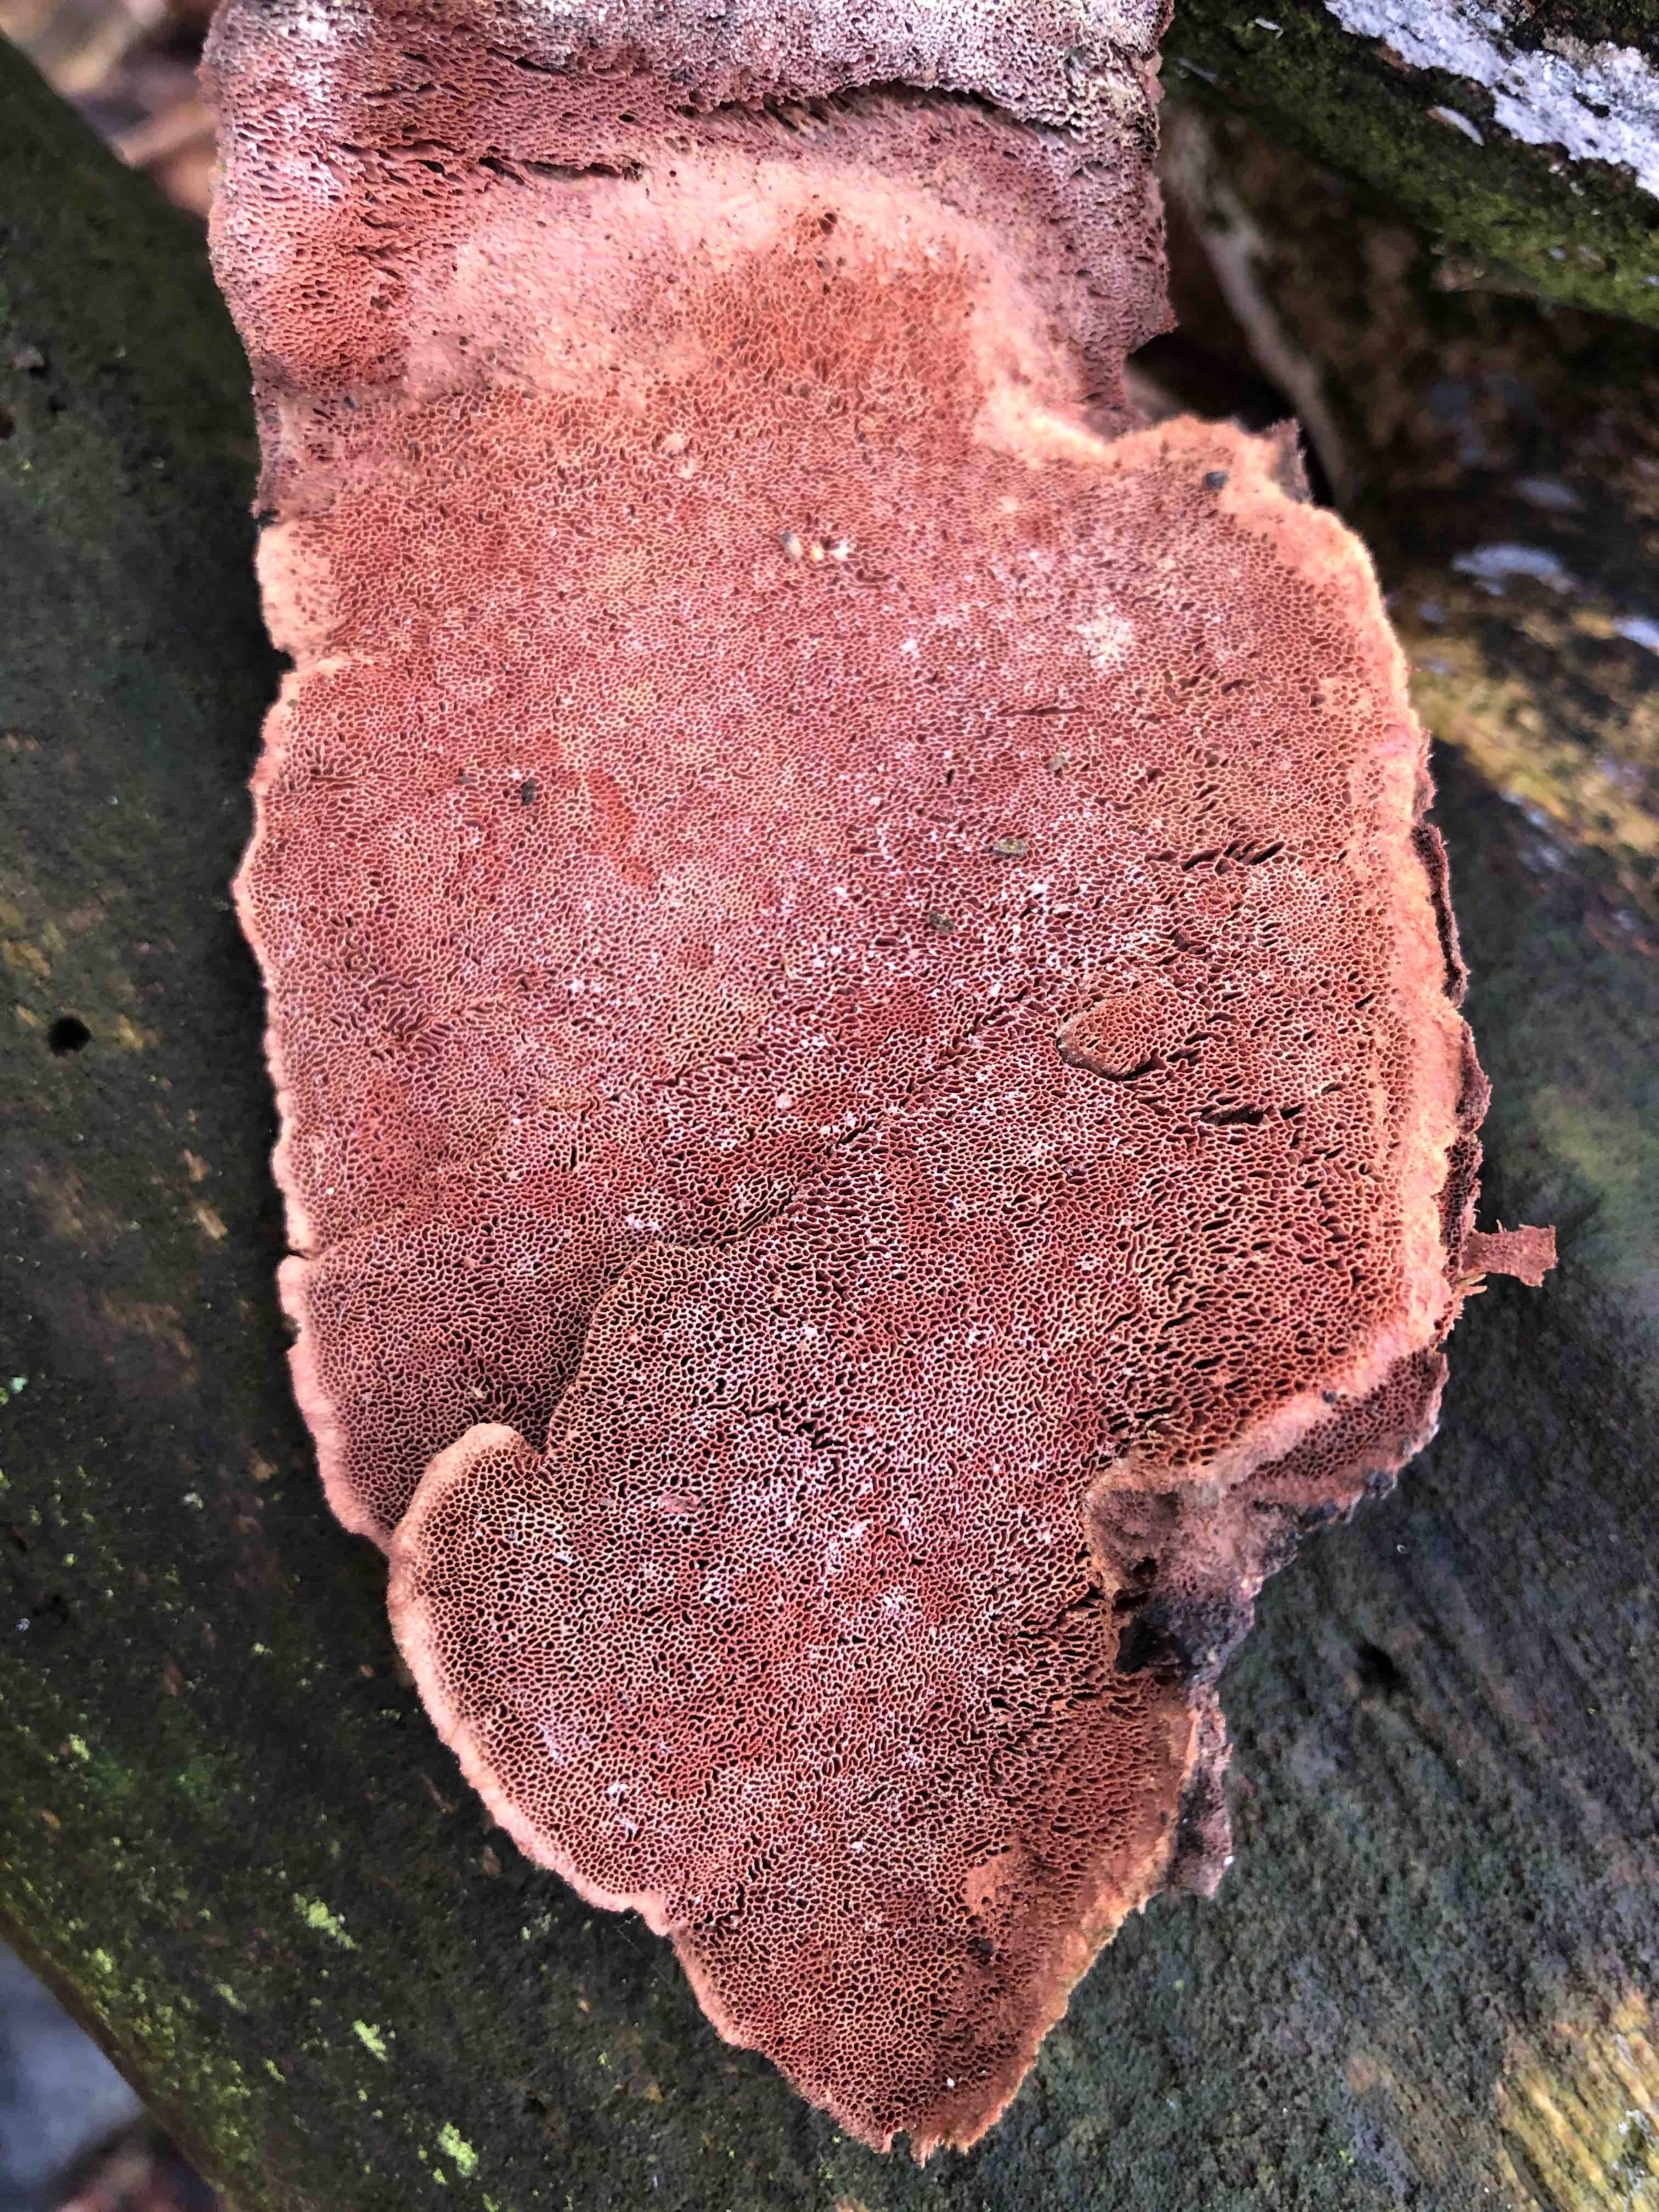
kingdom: Fungi
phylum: Basidiomycota
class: Agaricomycetes
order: Polyporales
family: Phanerochaetaceae
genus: Hapalopilus
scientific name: Hapalopilus rutilans
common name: rødlig okkerporesvamp
